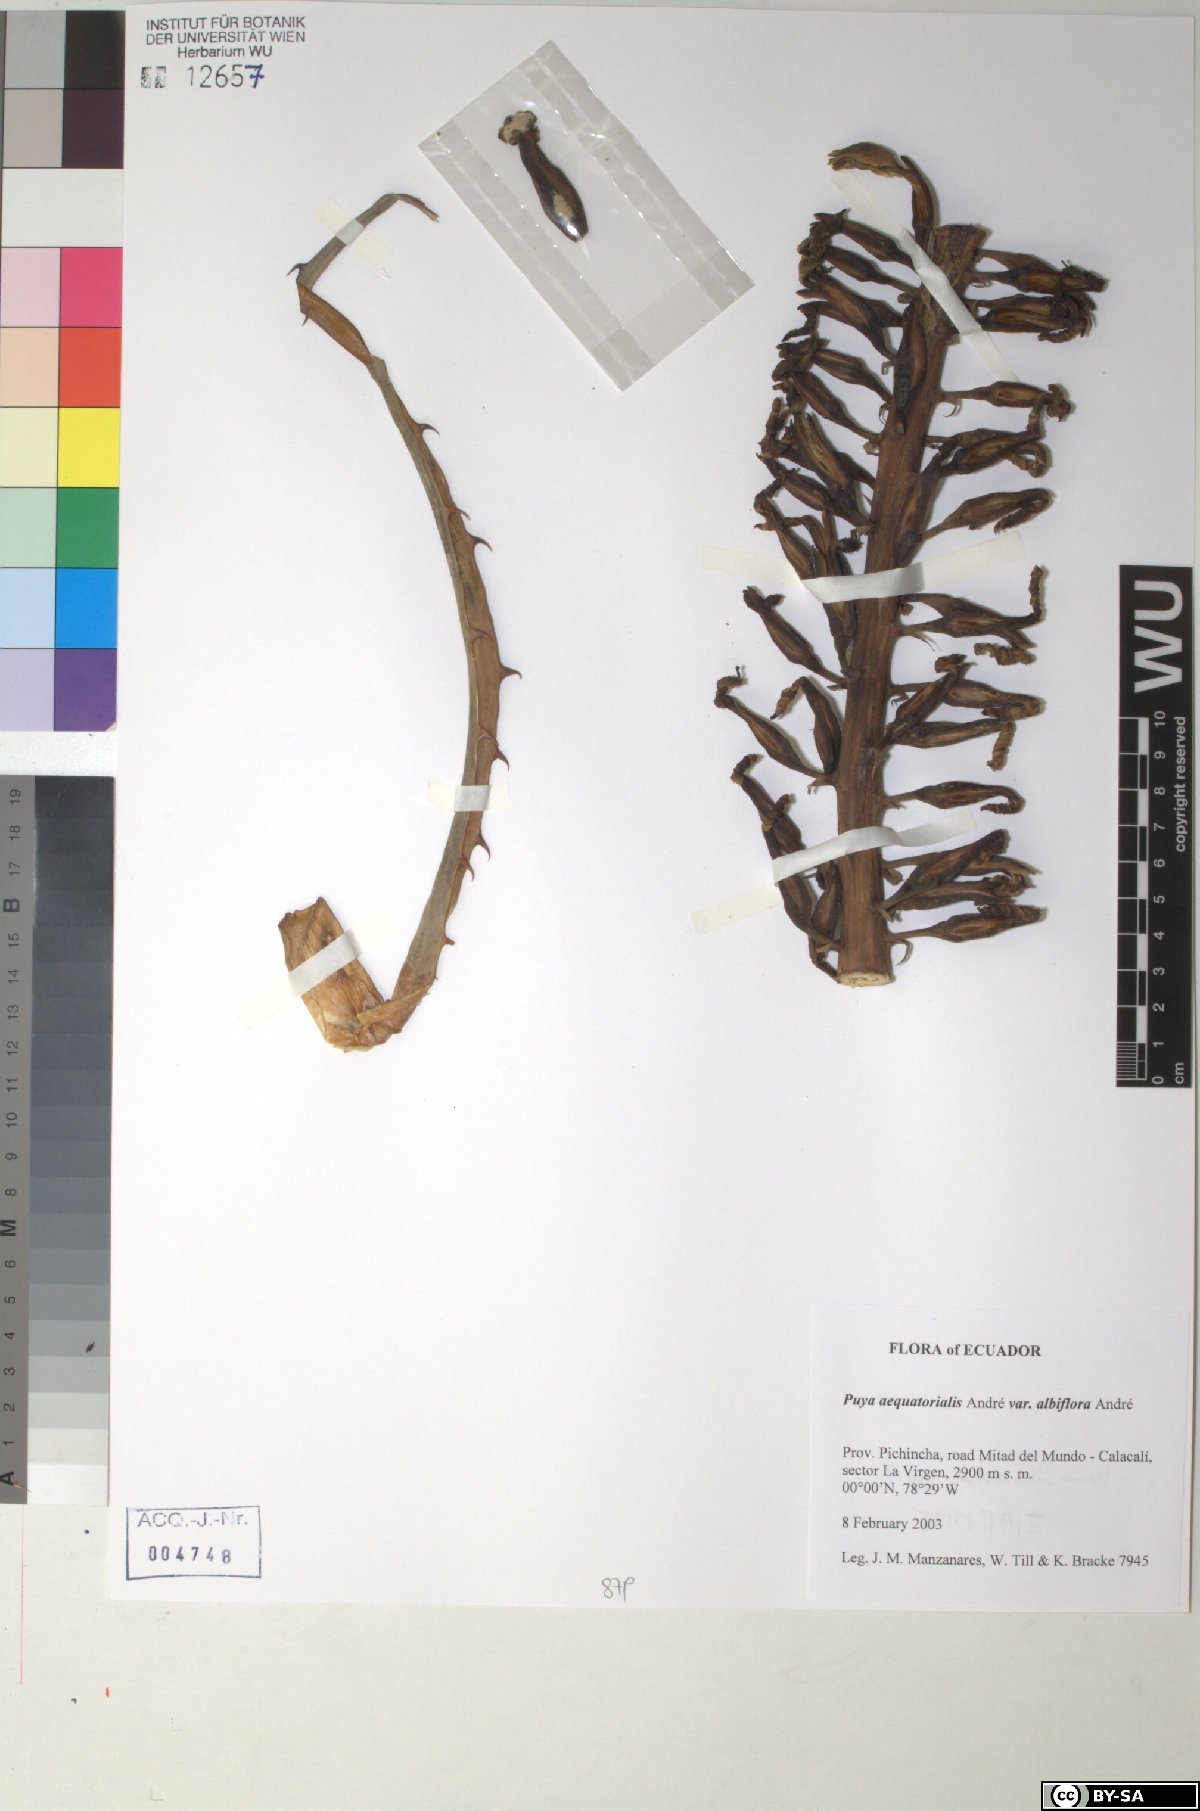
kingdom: Plantae
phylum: Tracheophyta
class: Liliopsida
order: Poales
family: Bromeliaceae
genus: Puya
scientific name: Puya aequatorialis
